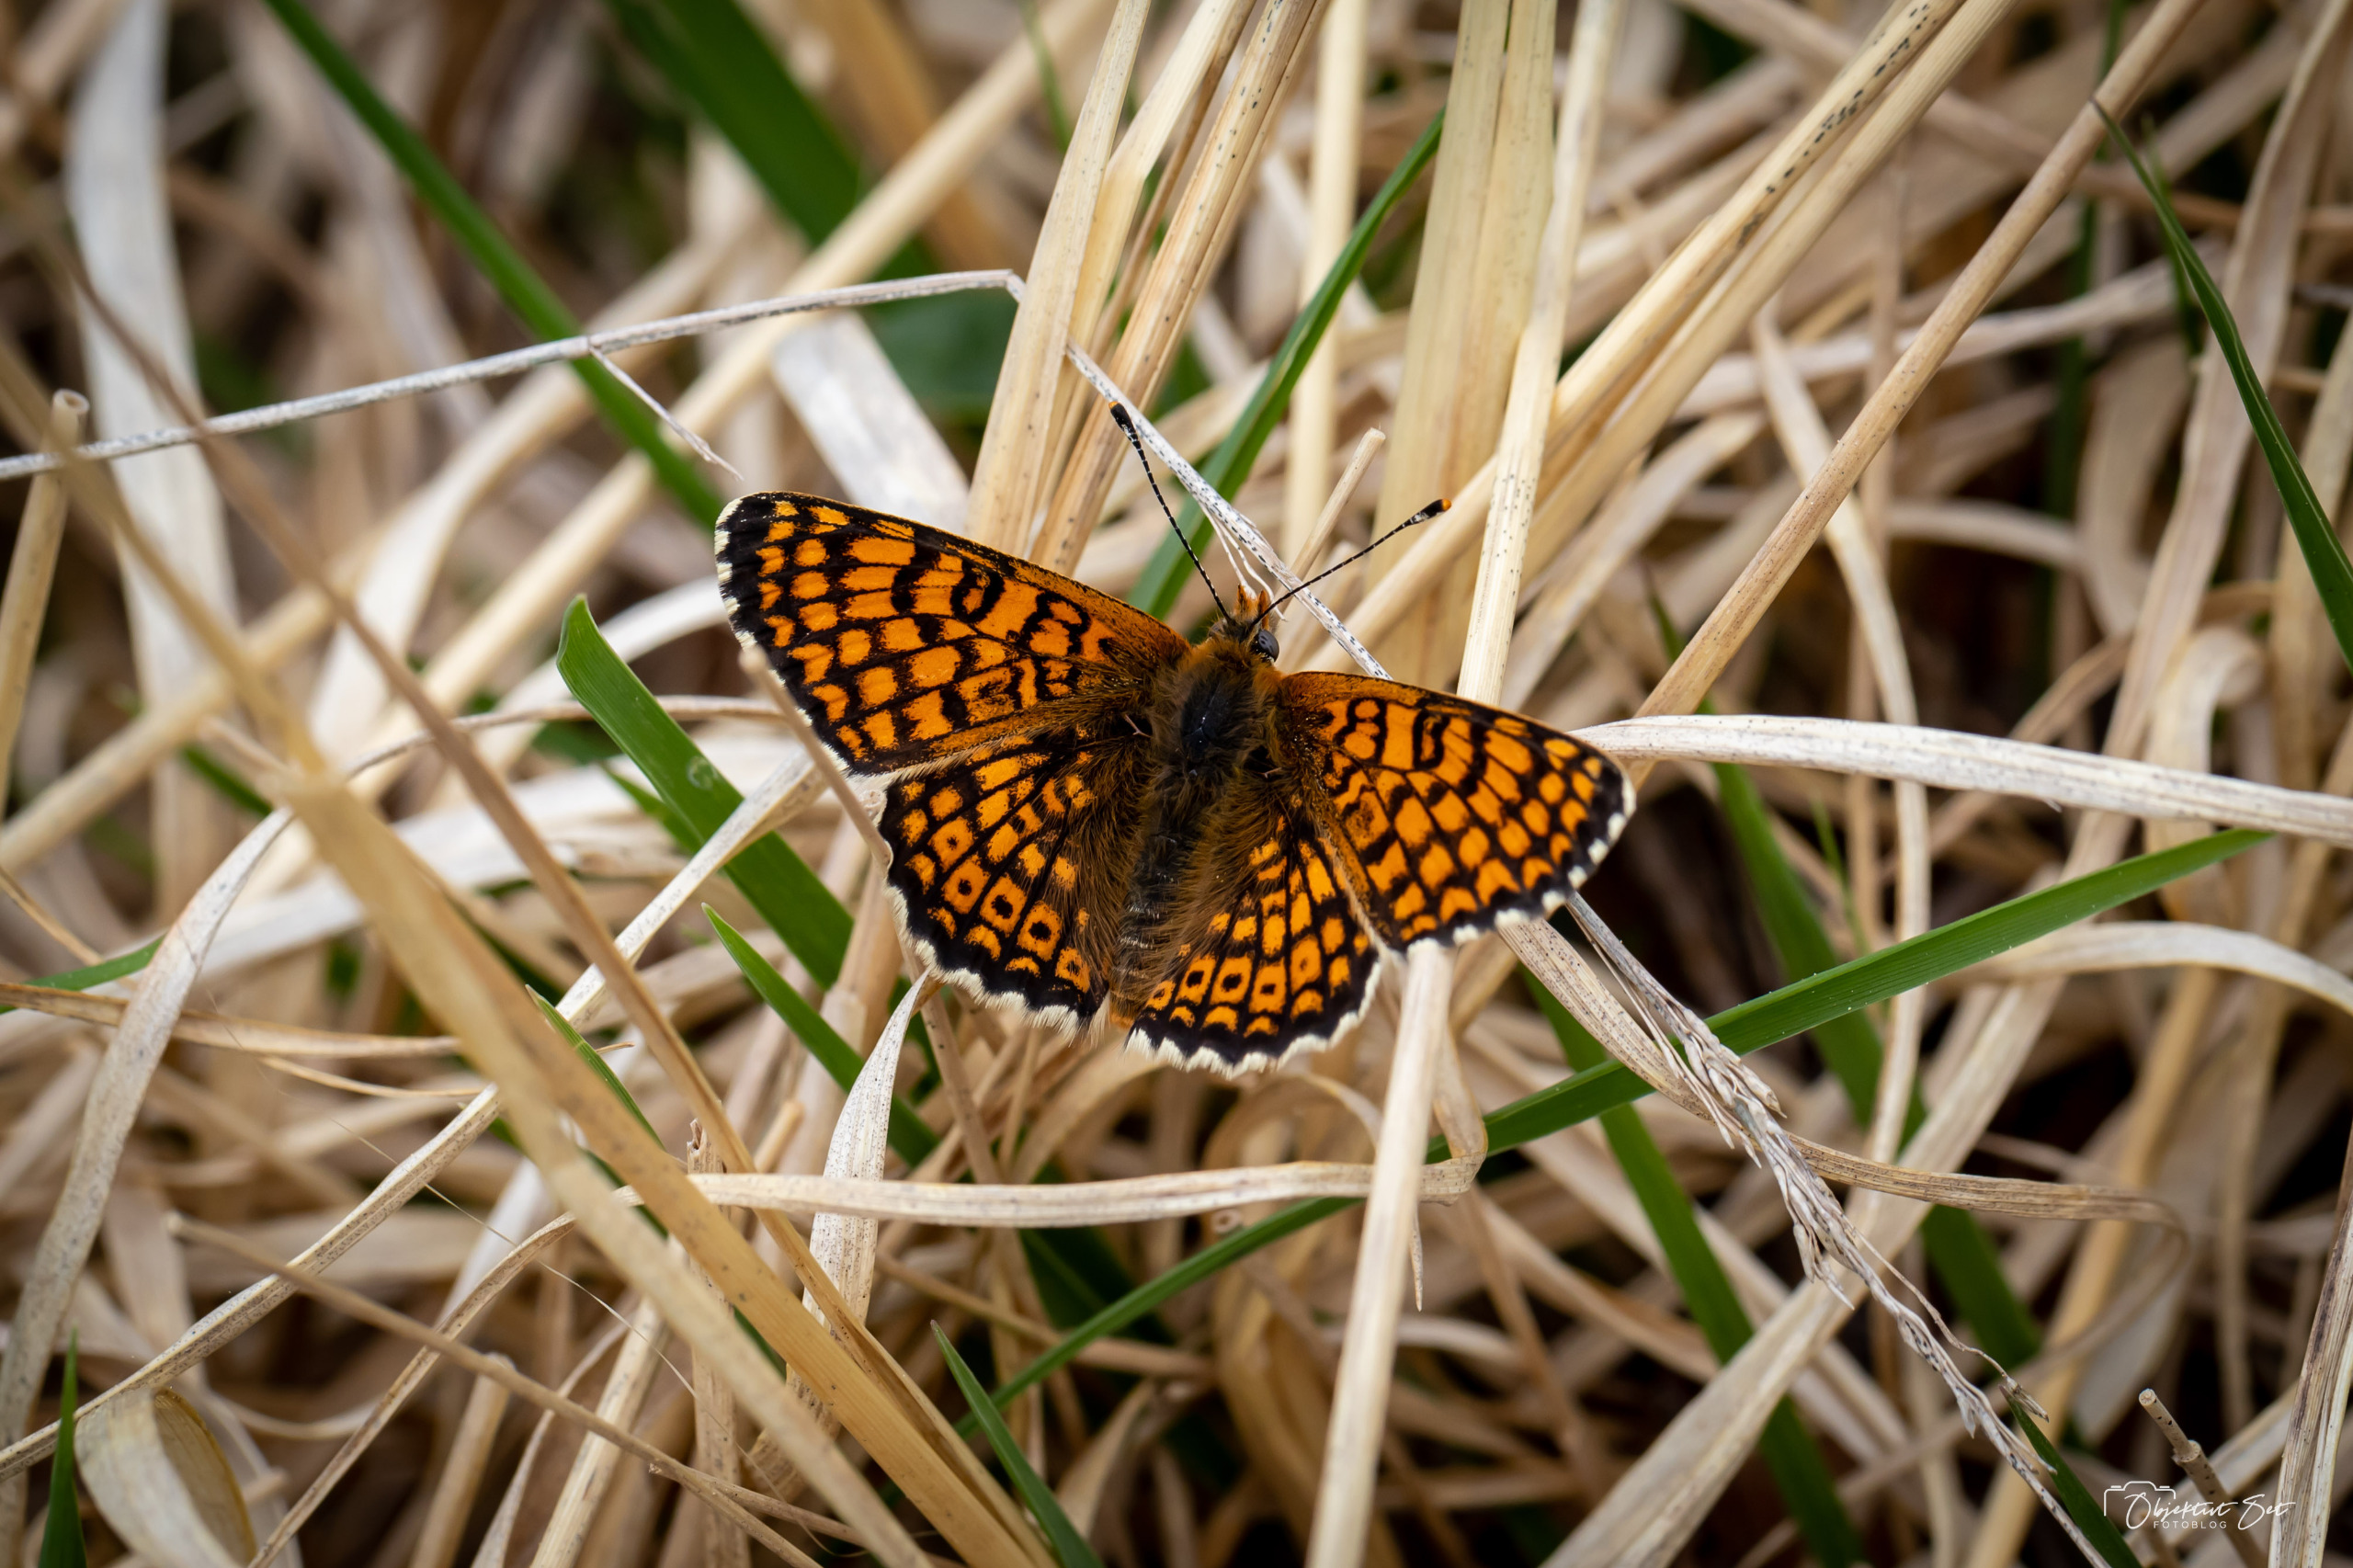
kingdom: Animalia
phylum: Arthropoda
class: Insecta
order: Lepidoptera
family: Nymphalidae
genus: Melitaea
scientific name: Melitaea cinxia
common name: Okkergul pletvinge
